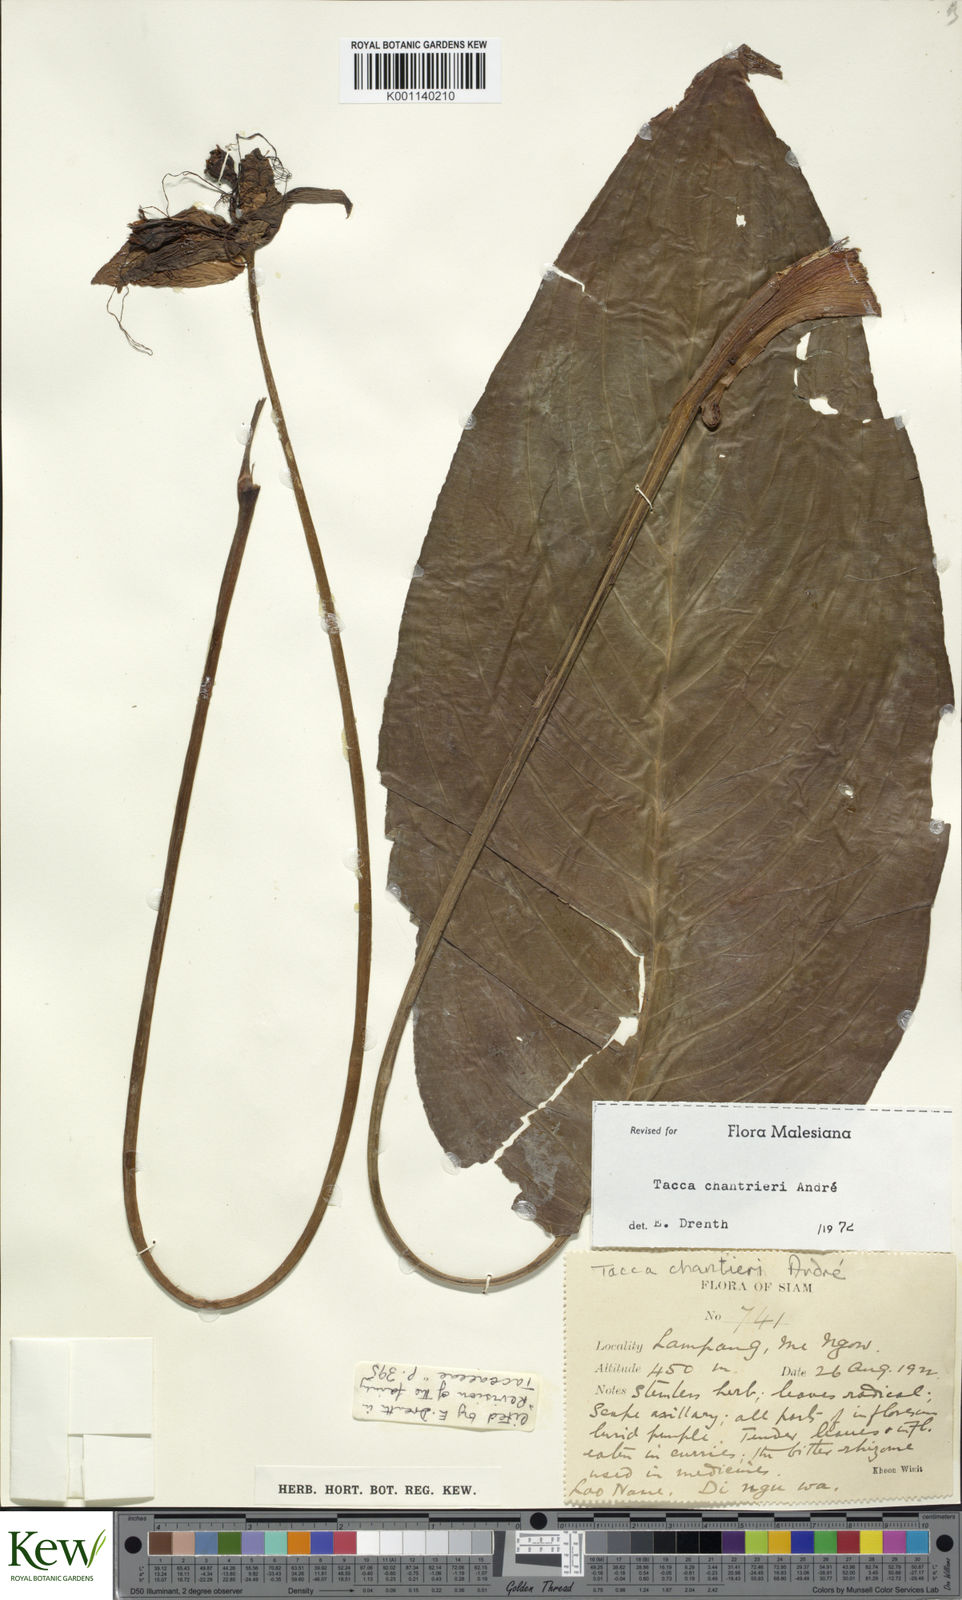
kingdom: Plantae
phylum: Tracheophyta
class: Liliopsida
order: Dioscoreales
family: Dioscoreaceae
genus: Tacca
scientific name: Tacca
